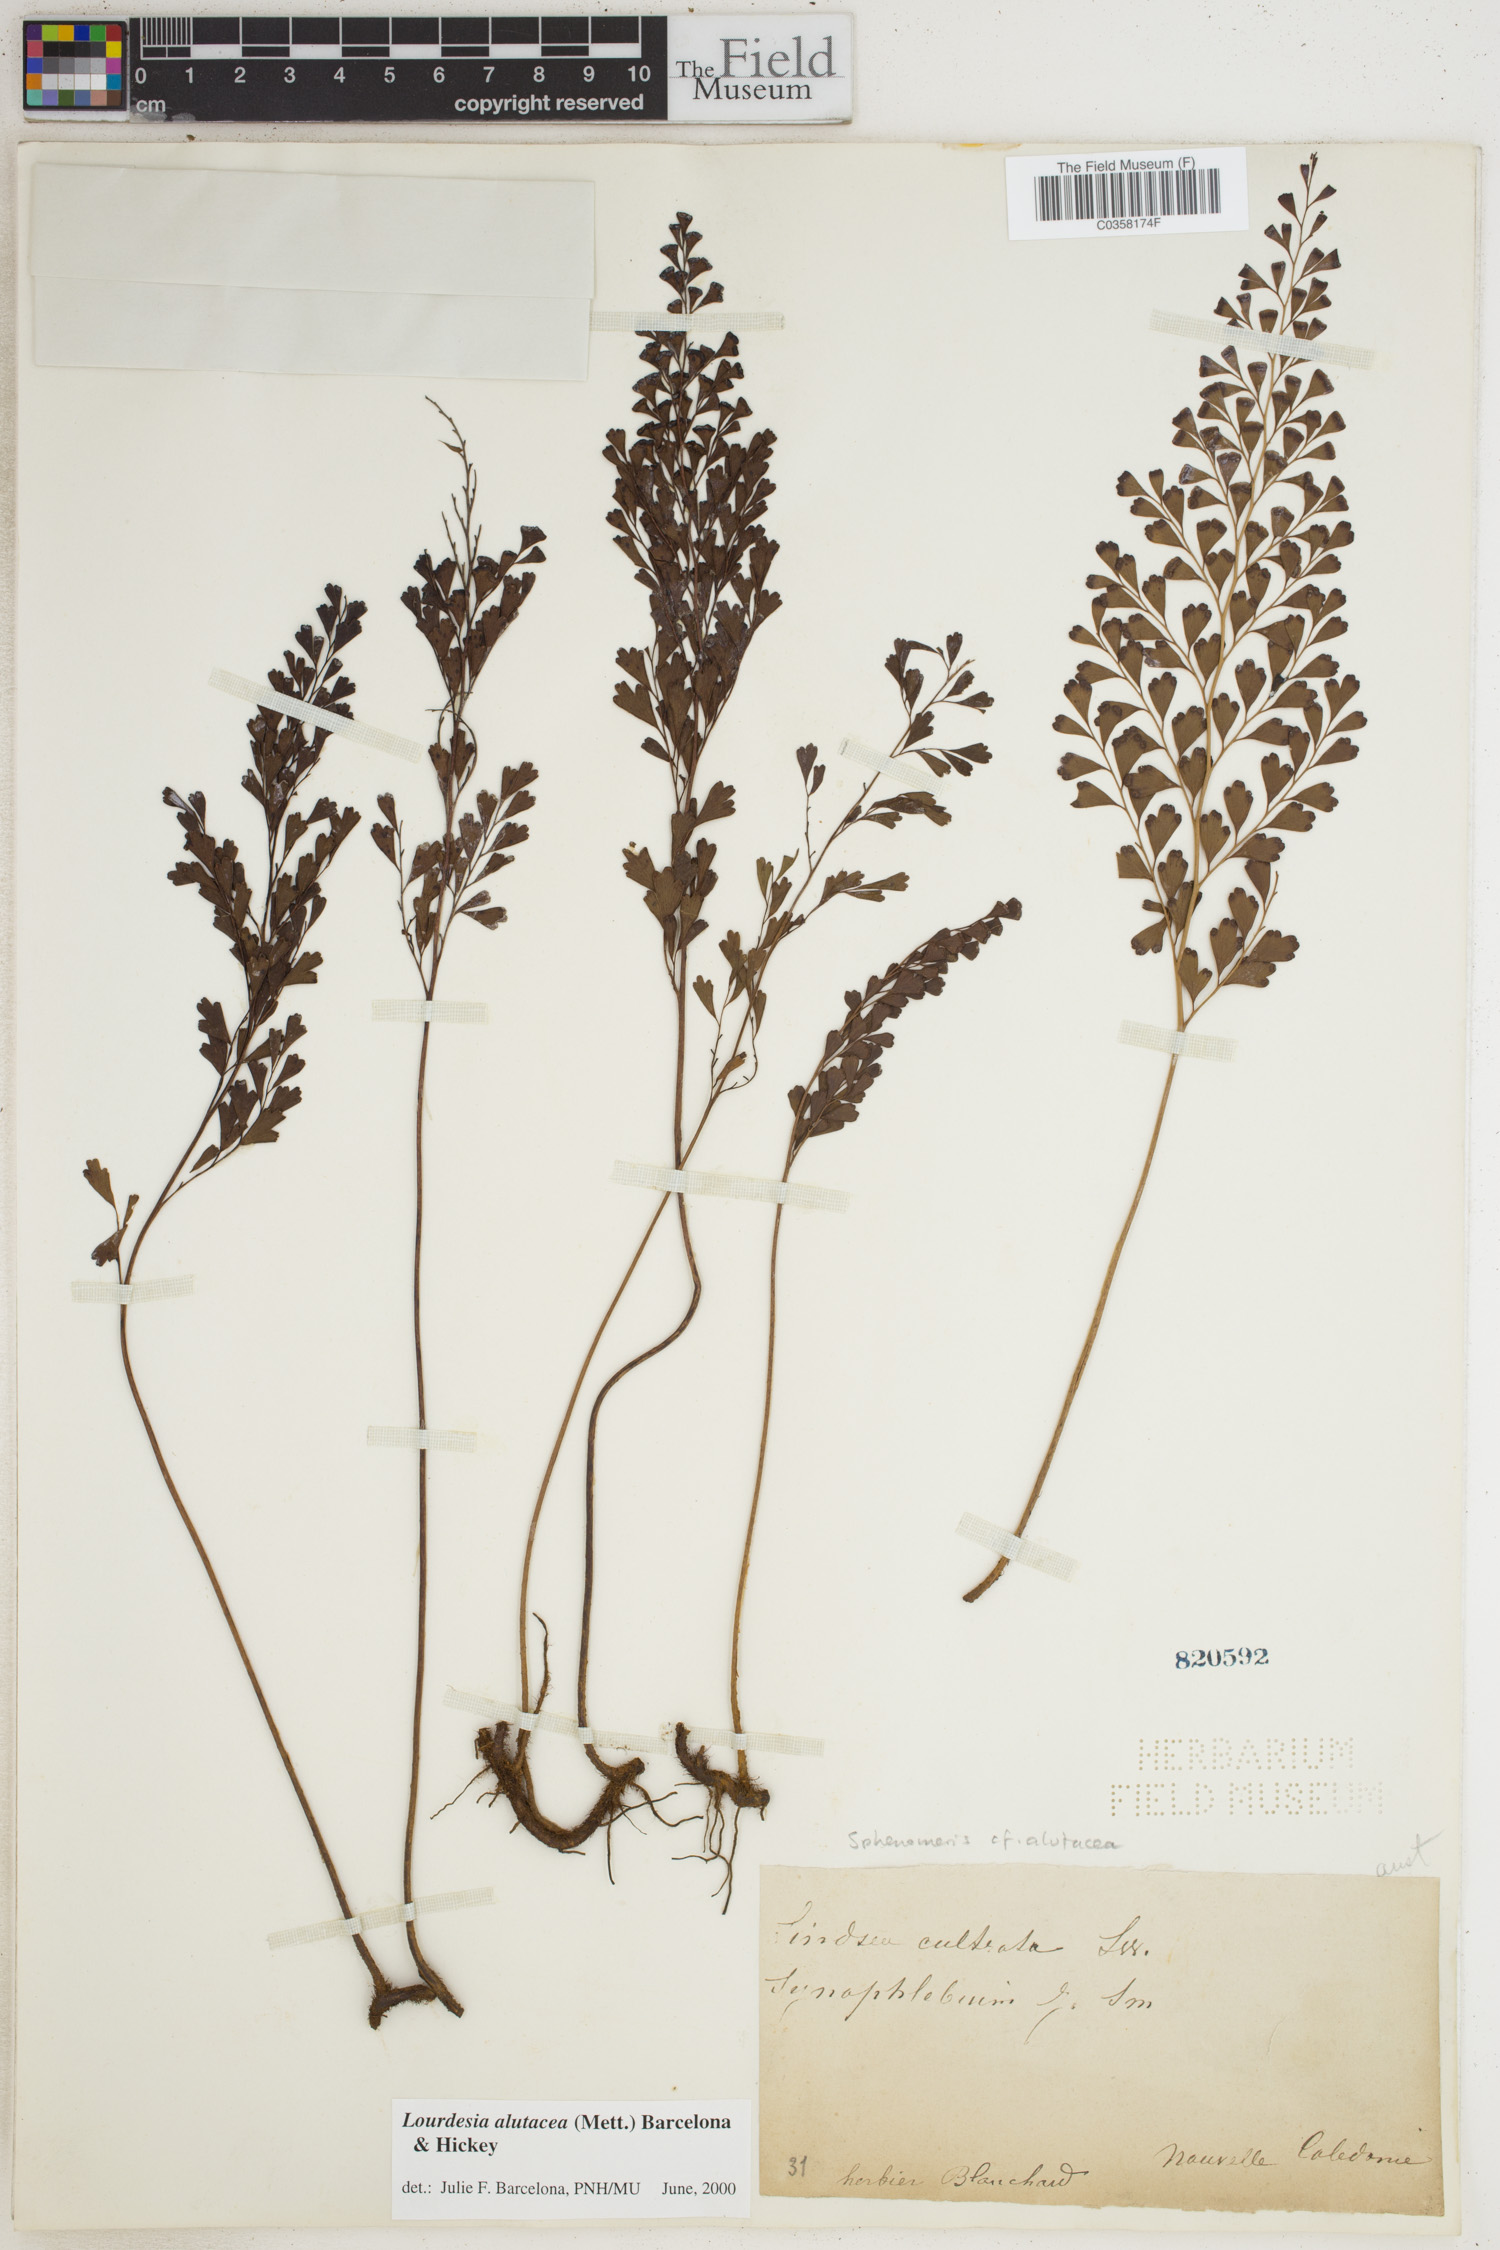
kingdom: Plantae
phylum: Tracheophyta
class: Polypodiopsida
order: Polypodiales
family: Lindsaeaceae
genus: Odontosoria
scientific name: Odontosoria alutacea
